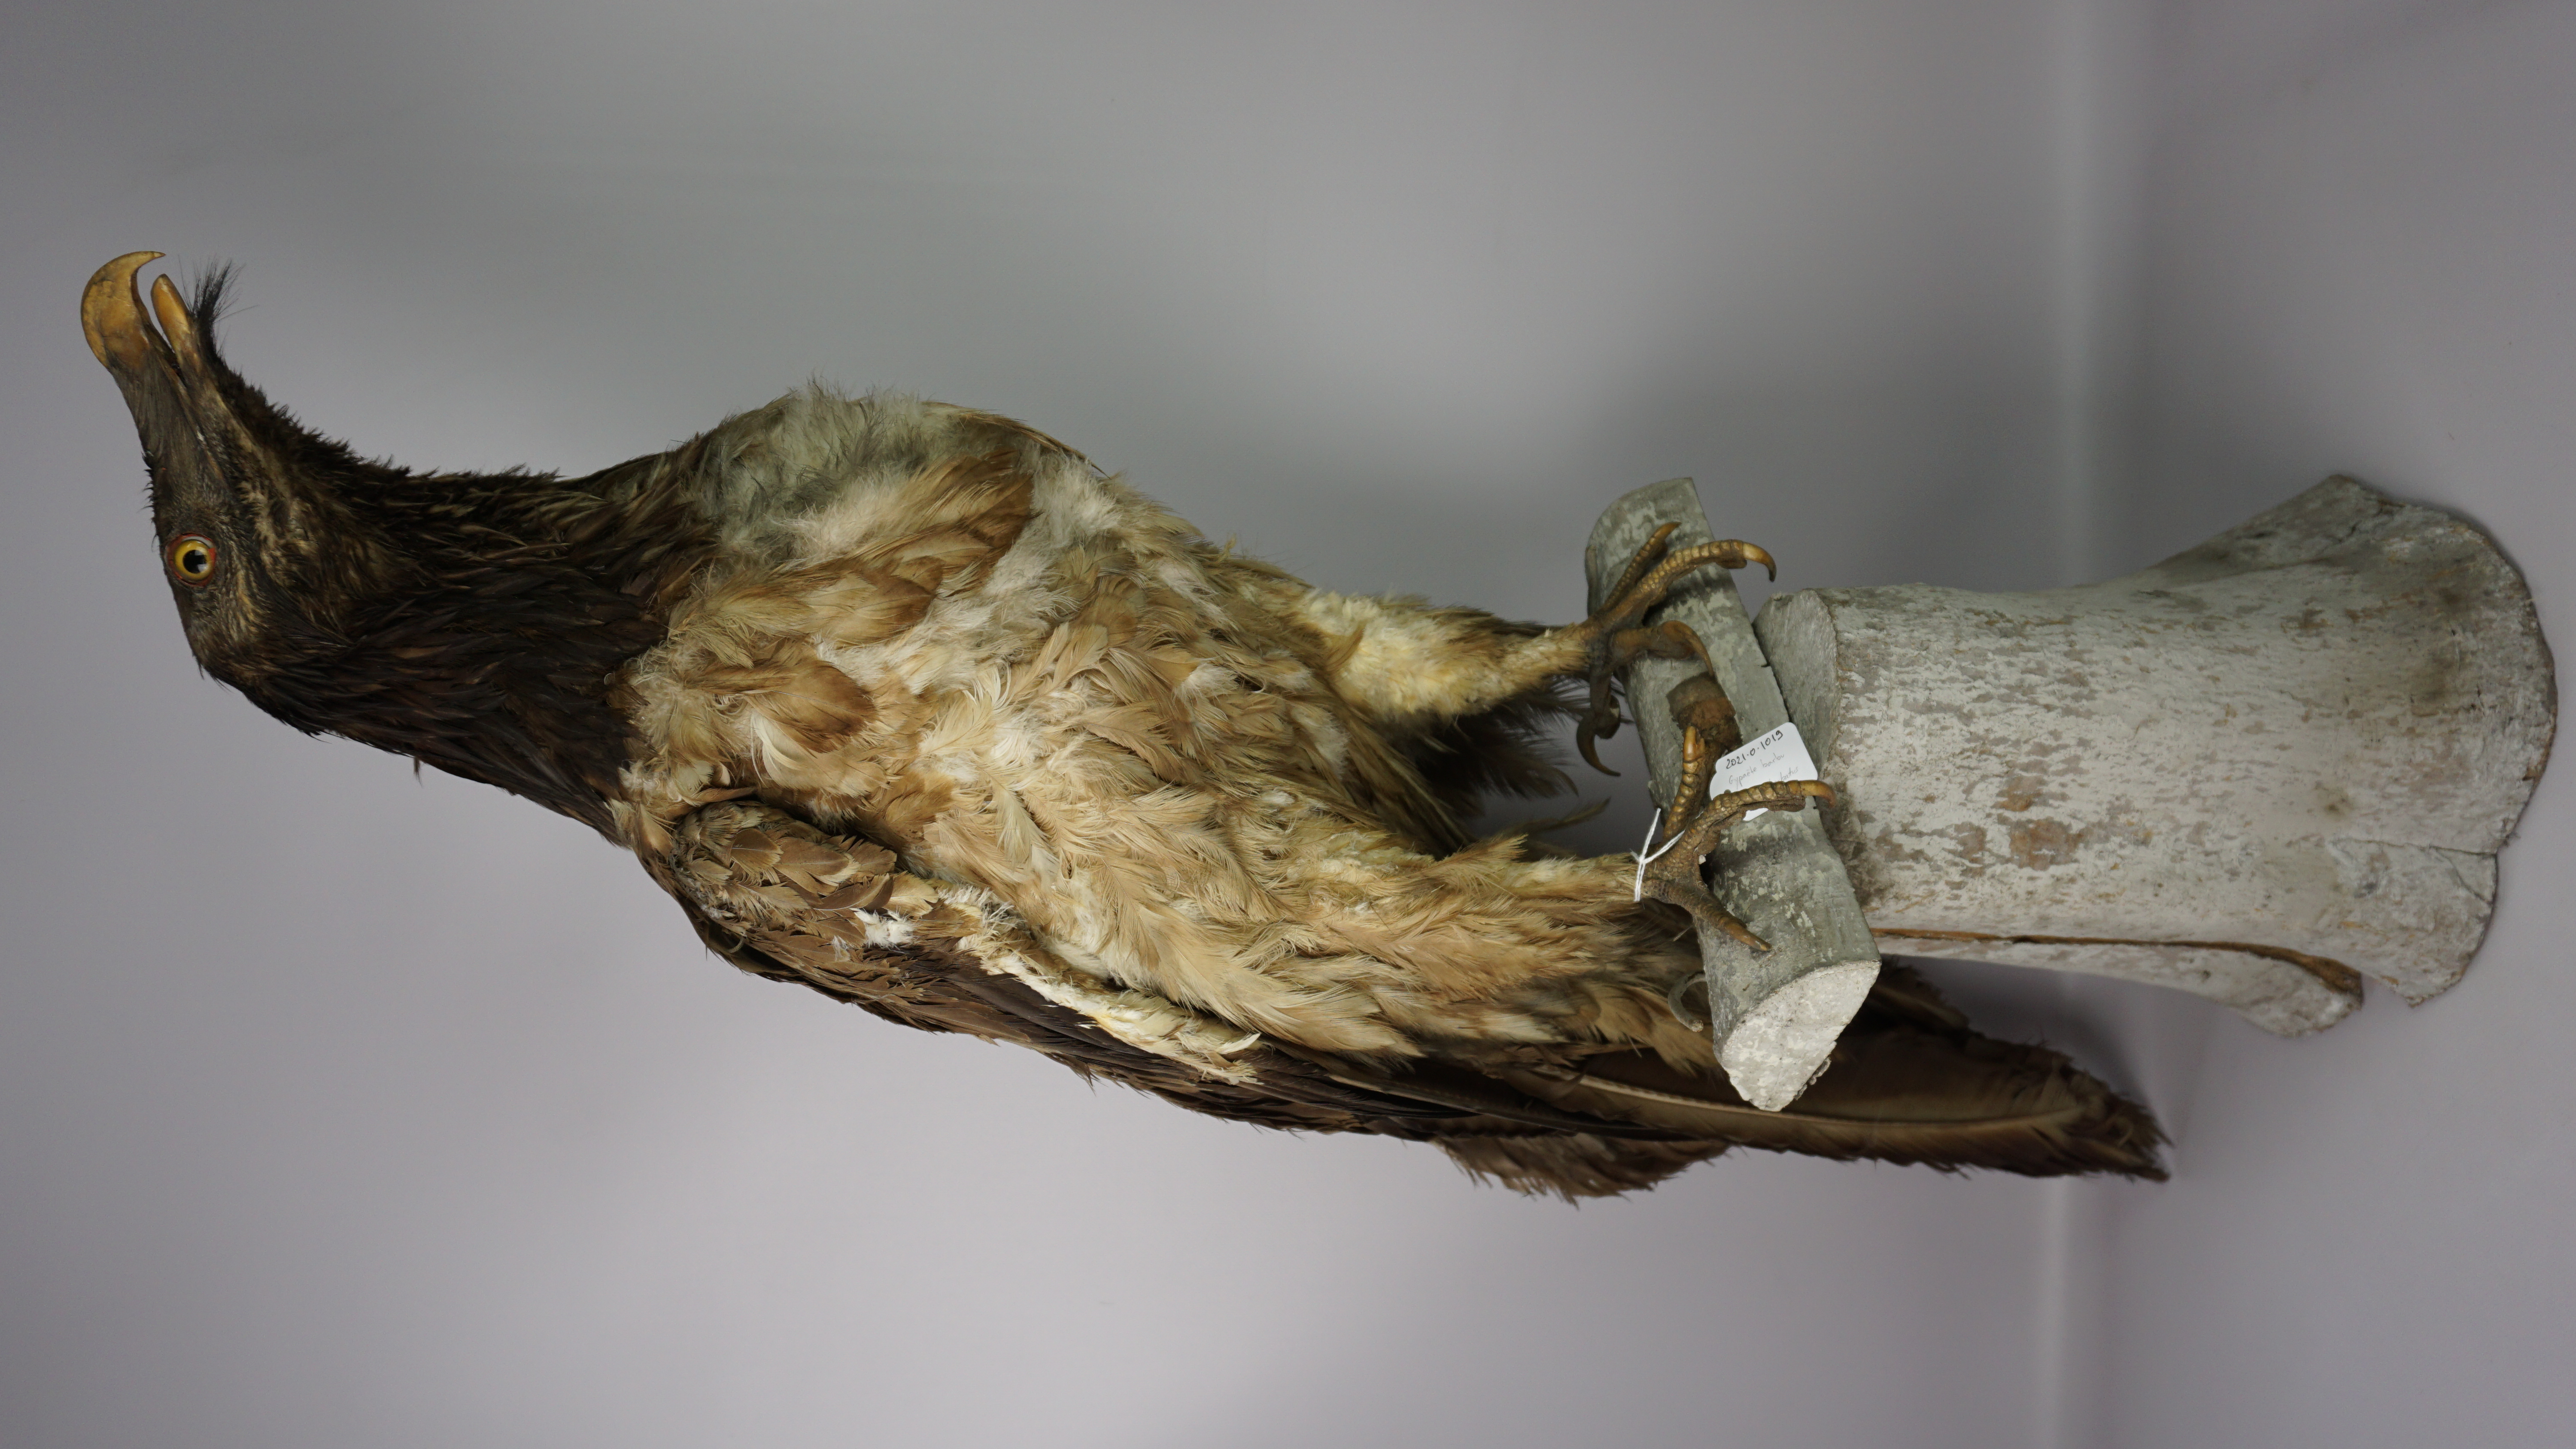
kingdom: Animalia
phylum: Chordata
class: Aves
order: Accipitriformes
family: Accipitridae
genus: Gypaetus
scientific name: Gypaetus barbatus
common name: Bearded vulture
